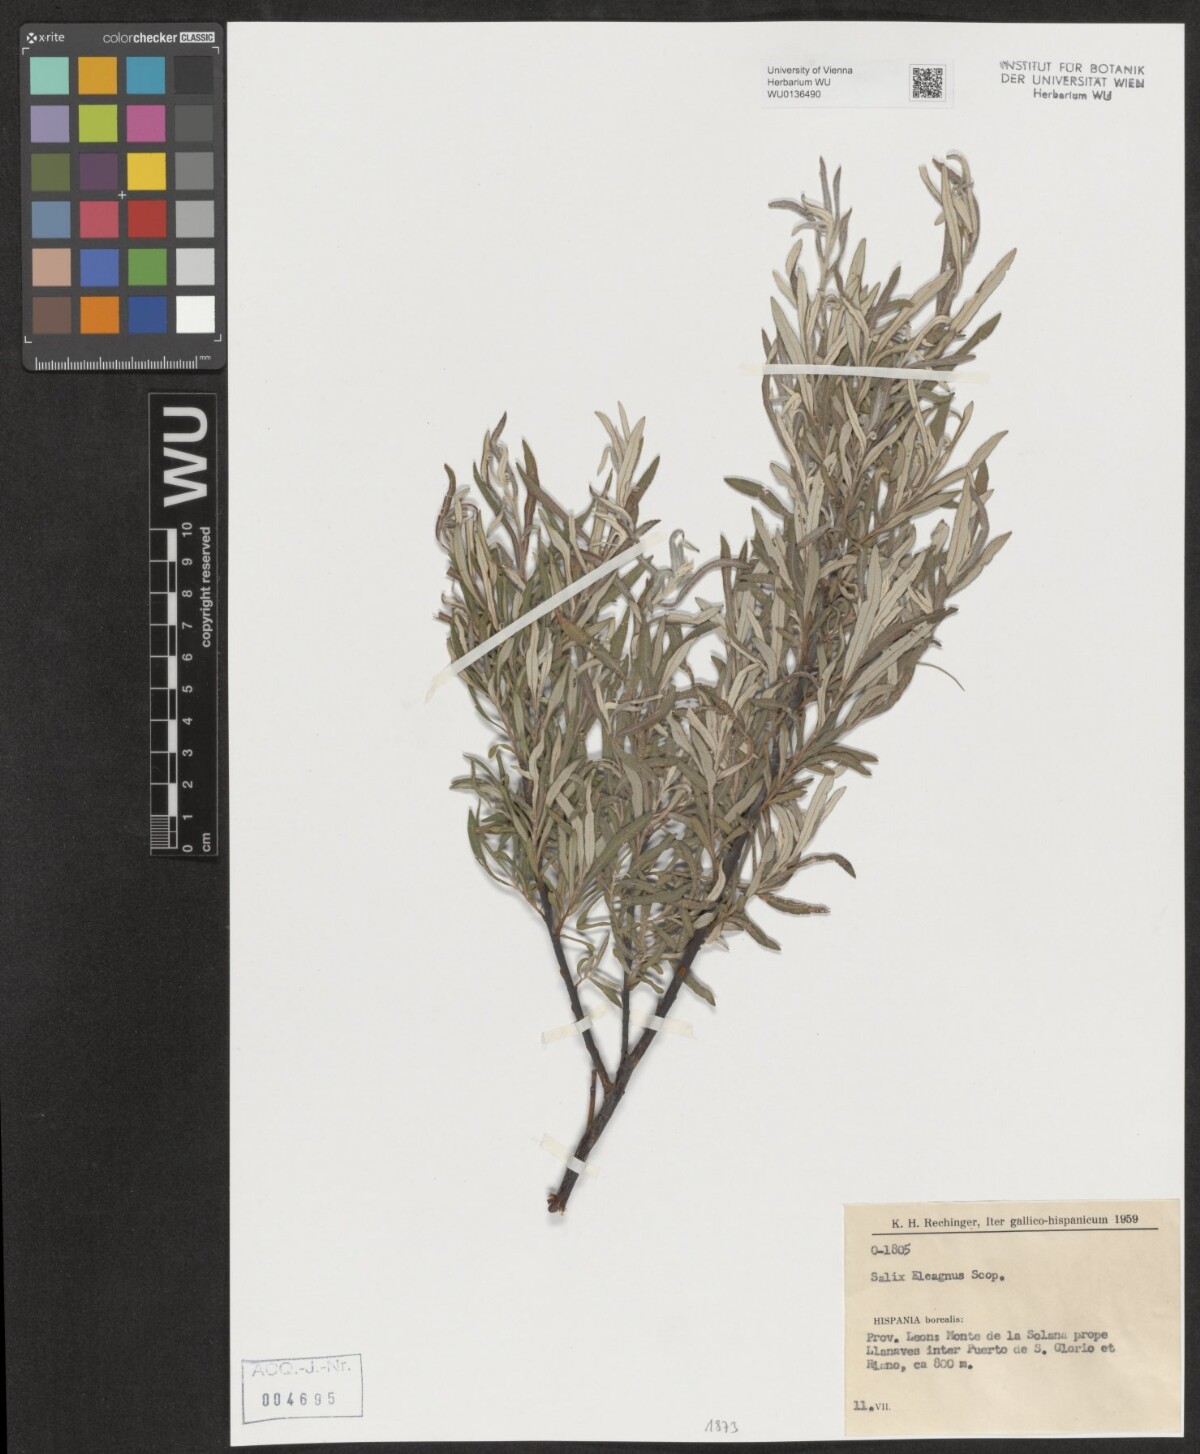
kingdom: Plantae
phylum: Tracheophyta
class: Magnoliopsida
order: Malpighiales
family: Salicaceae
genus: Salix
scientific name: Salix eleagnos
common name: Elaeagnus willow
